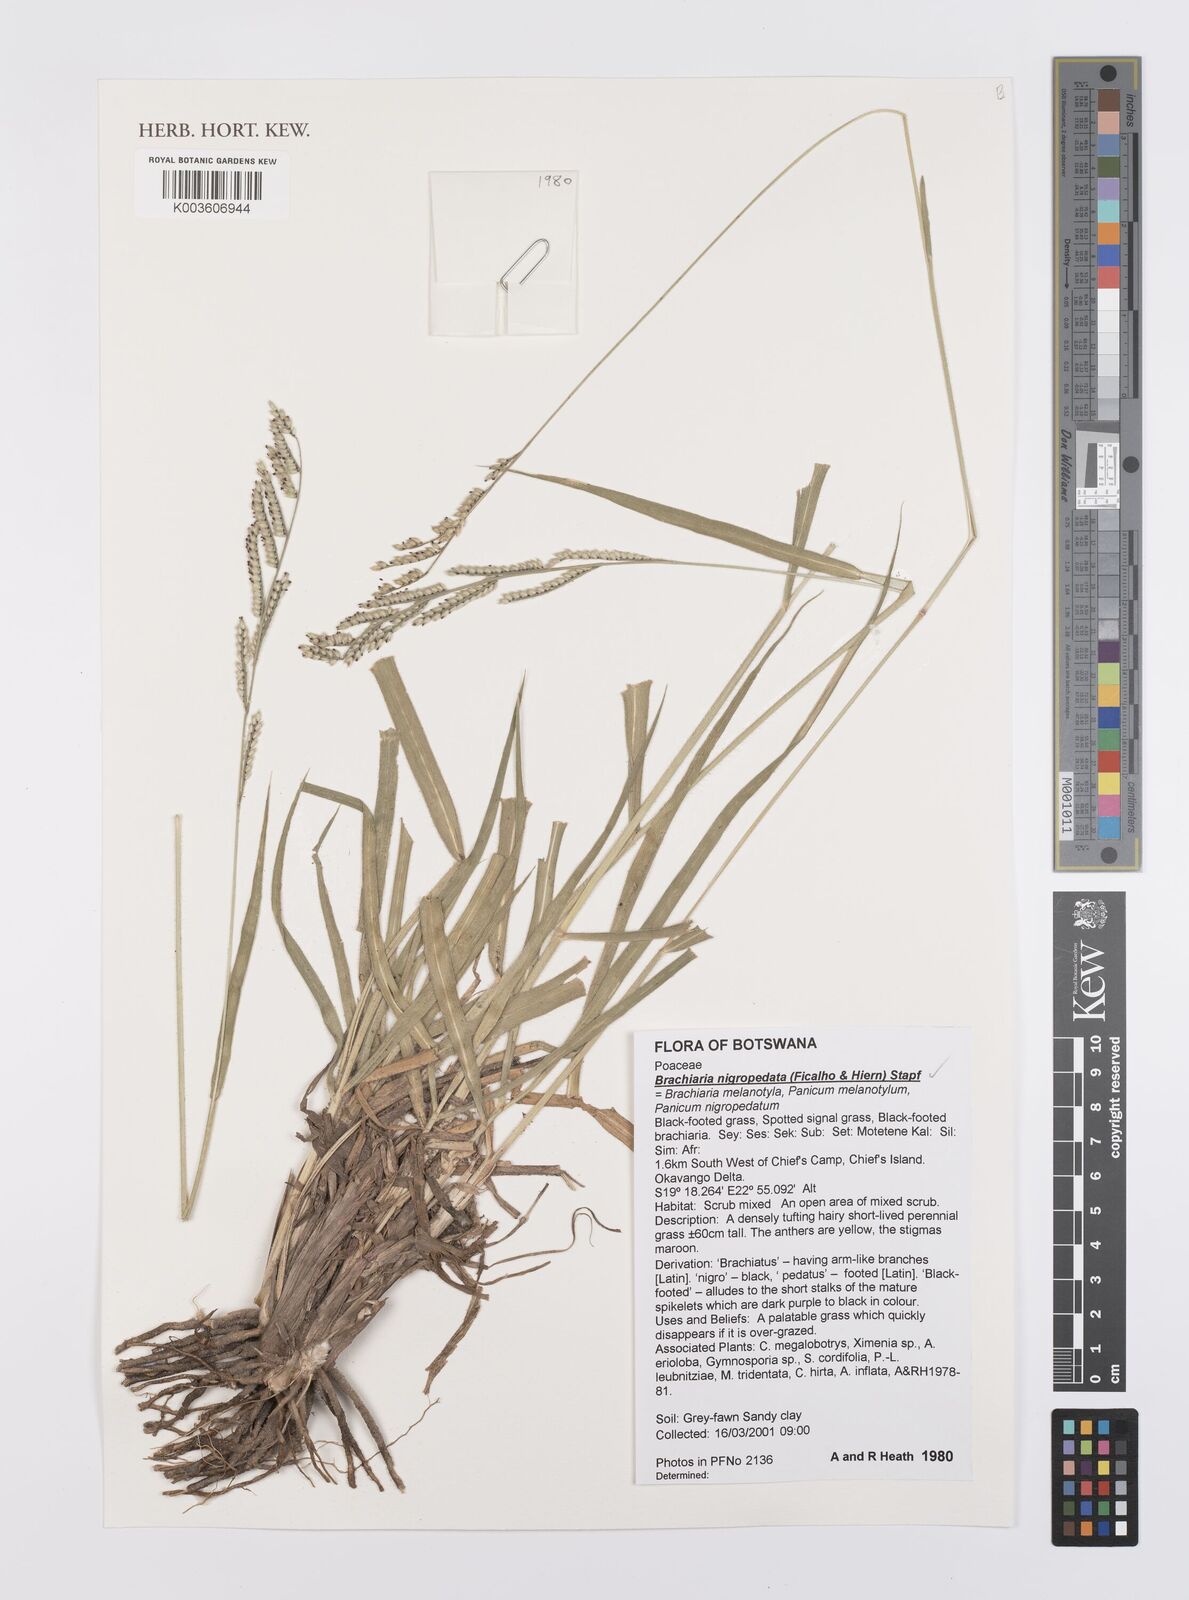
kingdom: Plantae
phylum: Tracheophyta
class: Liliopsida
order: Poales
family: Poaceae
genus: Urochloa
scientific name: Urochloa nigropedata
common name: Spotted signal grass
